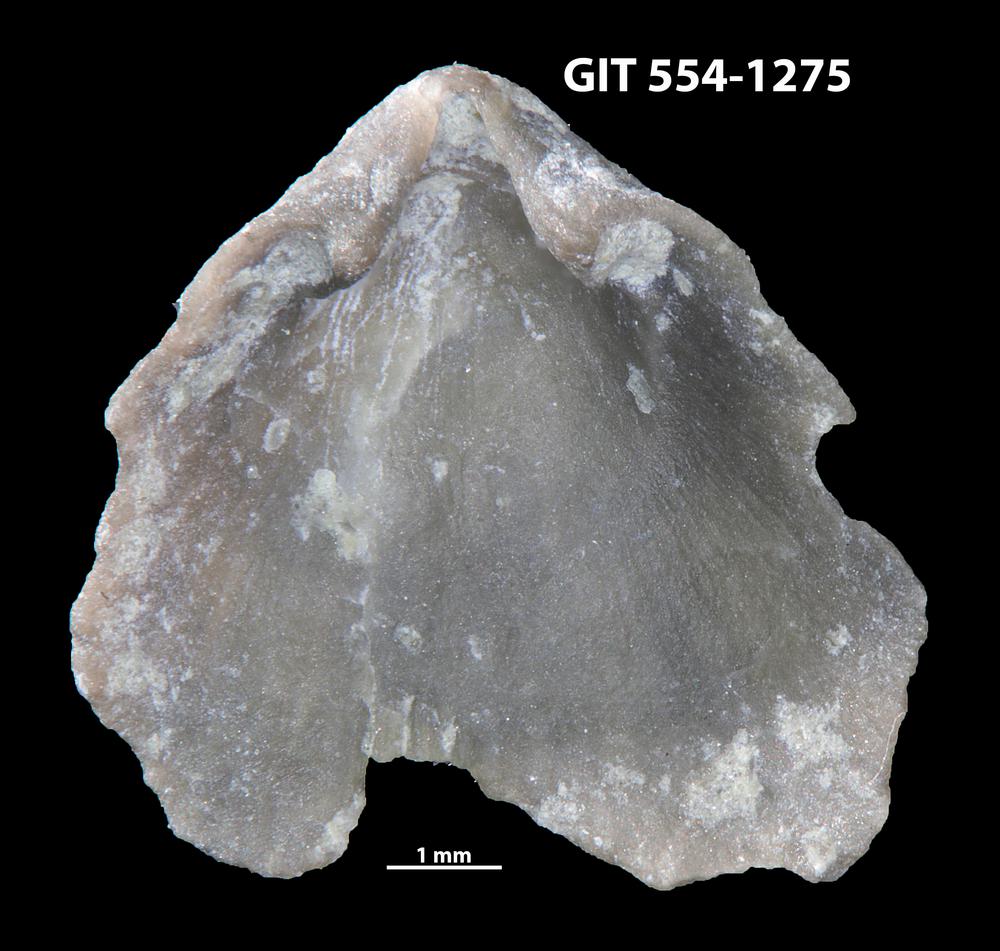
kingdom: Animalia
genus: Mendacella
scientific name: Mendacella bleikeriensis
